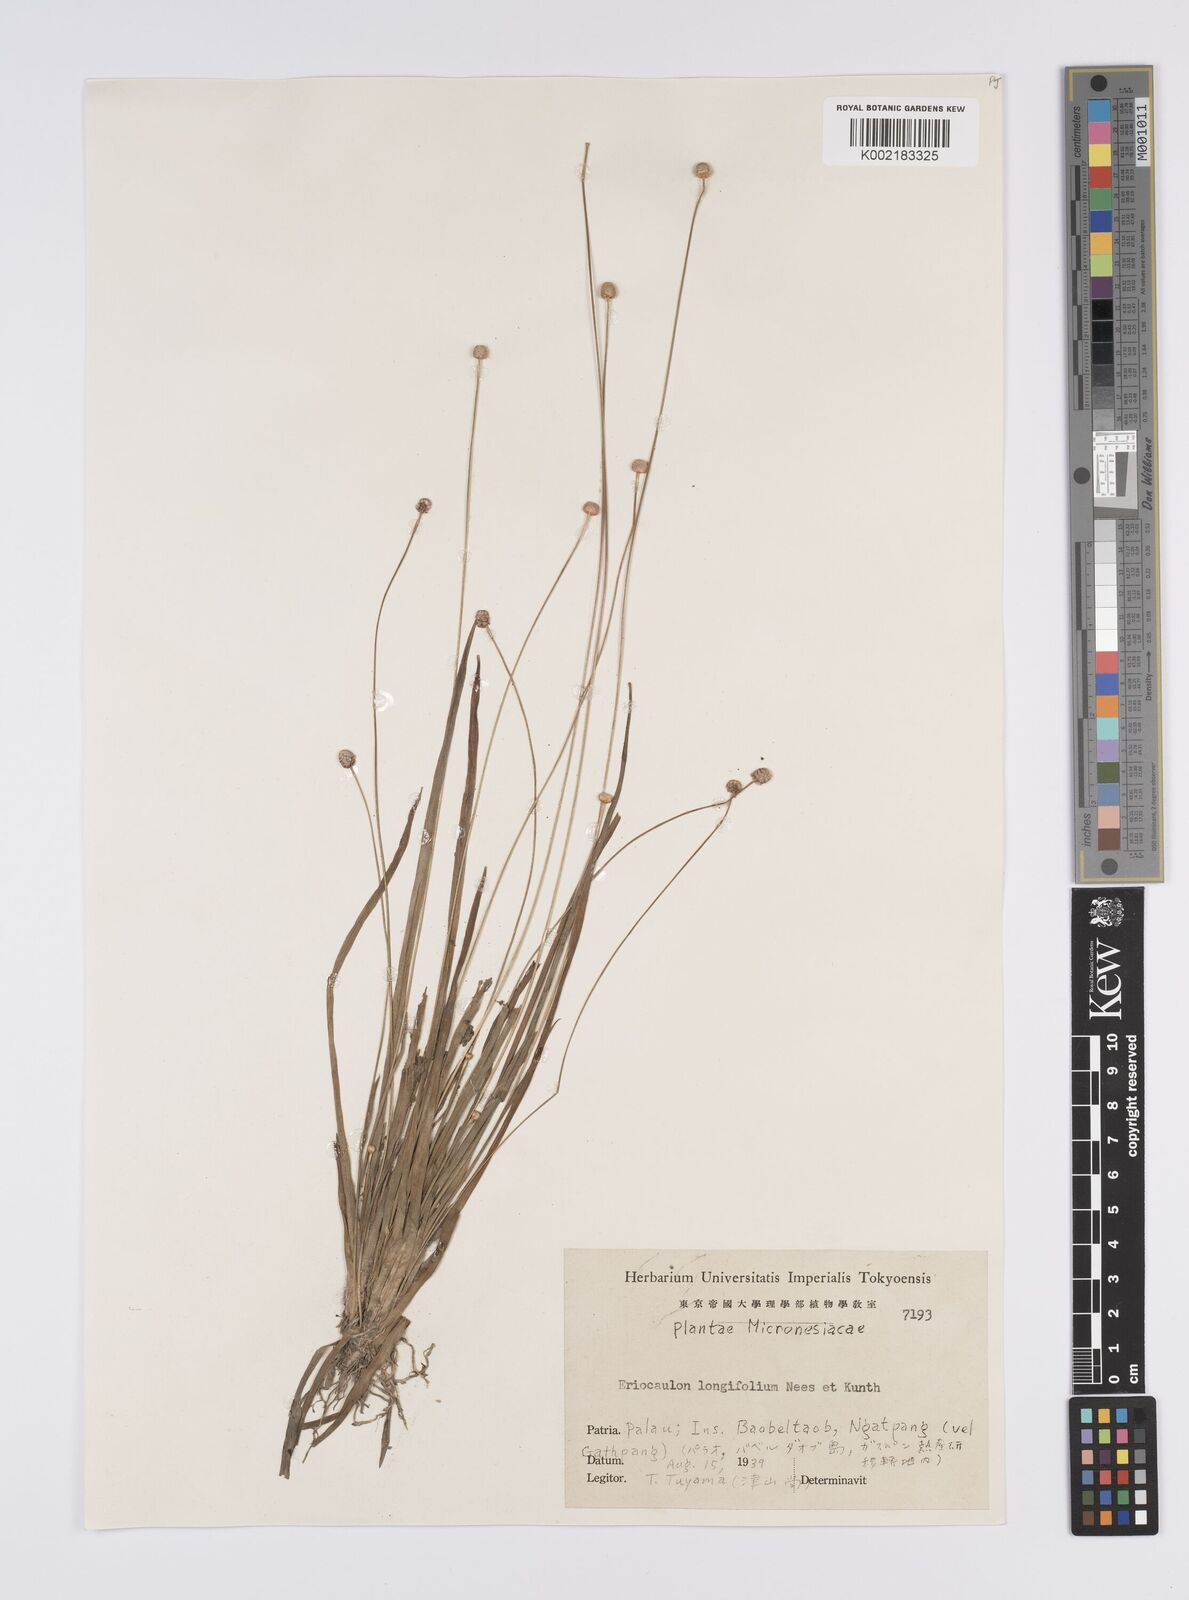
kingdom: Plantae
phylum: Tracheophyta
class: Liliopsida
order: Poales
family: Eriocaulaceae
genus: Eriocaulon
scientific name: Eriocaulon
